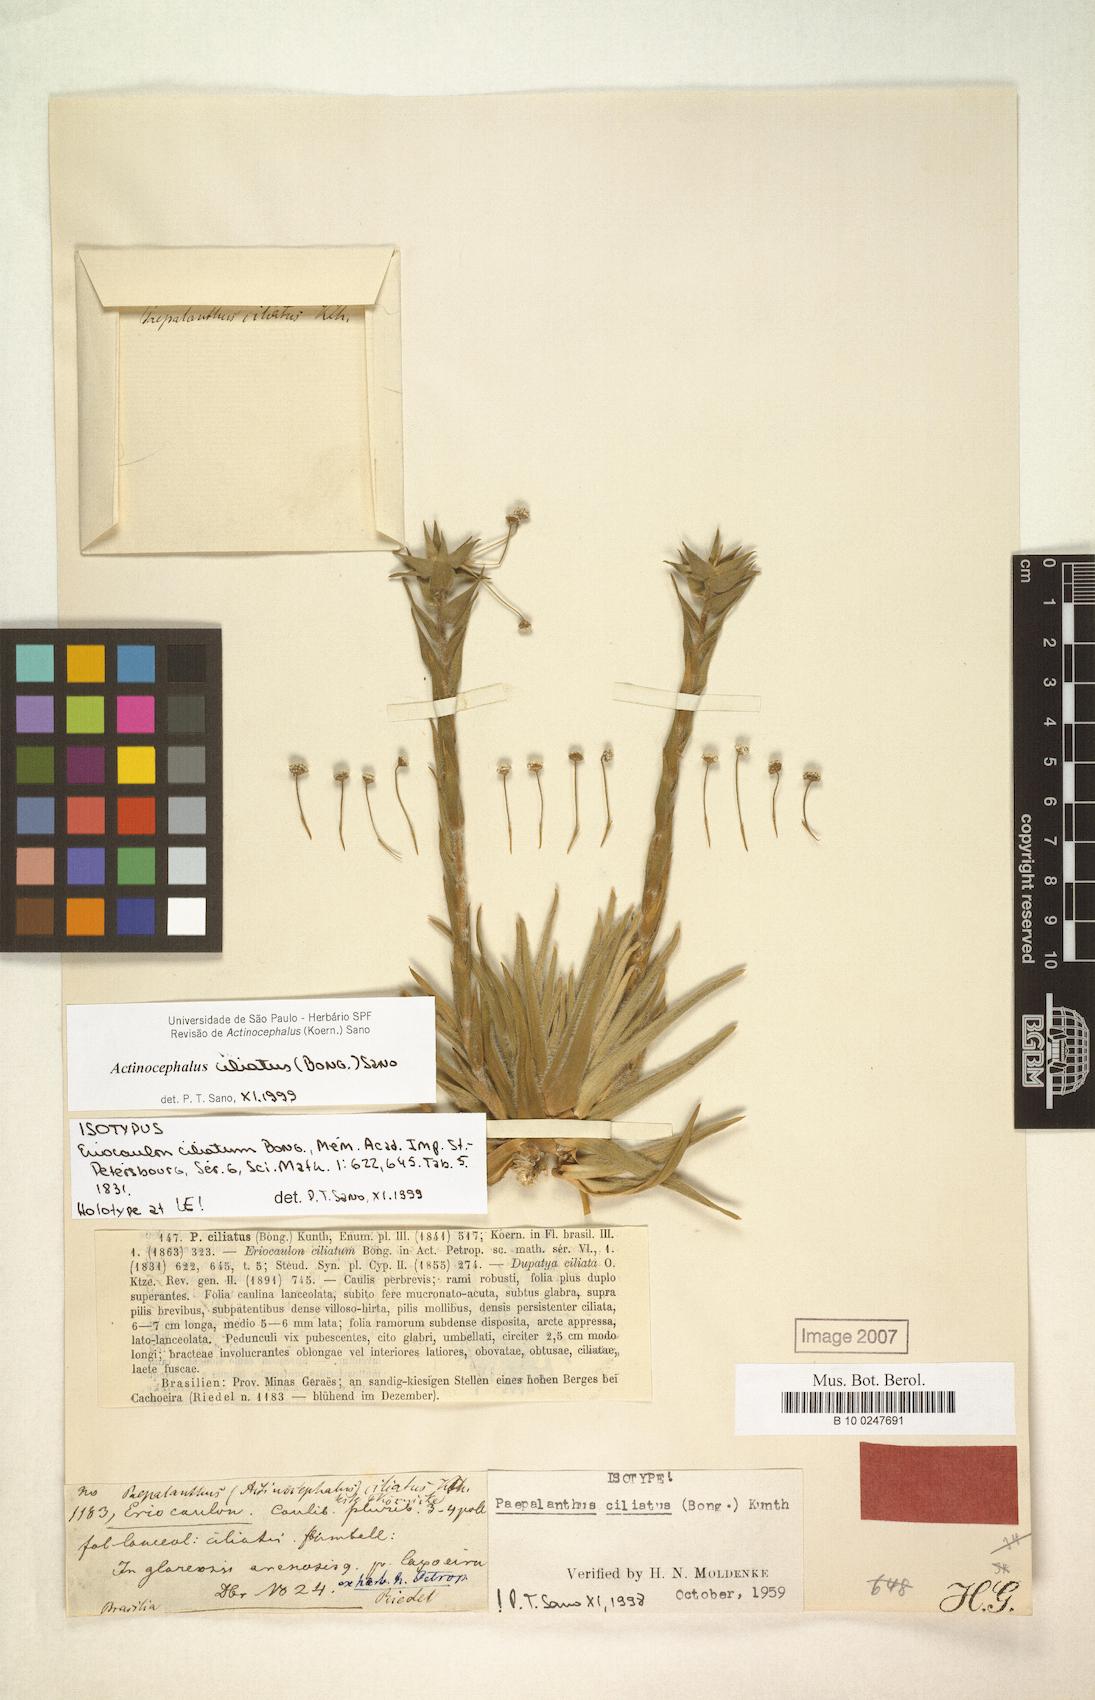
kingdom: Plantae
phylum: Tracheophyta
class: Liliopsida
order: Poales
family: Eriocaulaceae
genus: Paepalanthus
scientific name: Paepalanthus ciliatus
